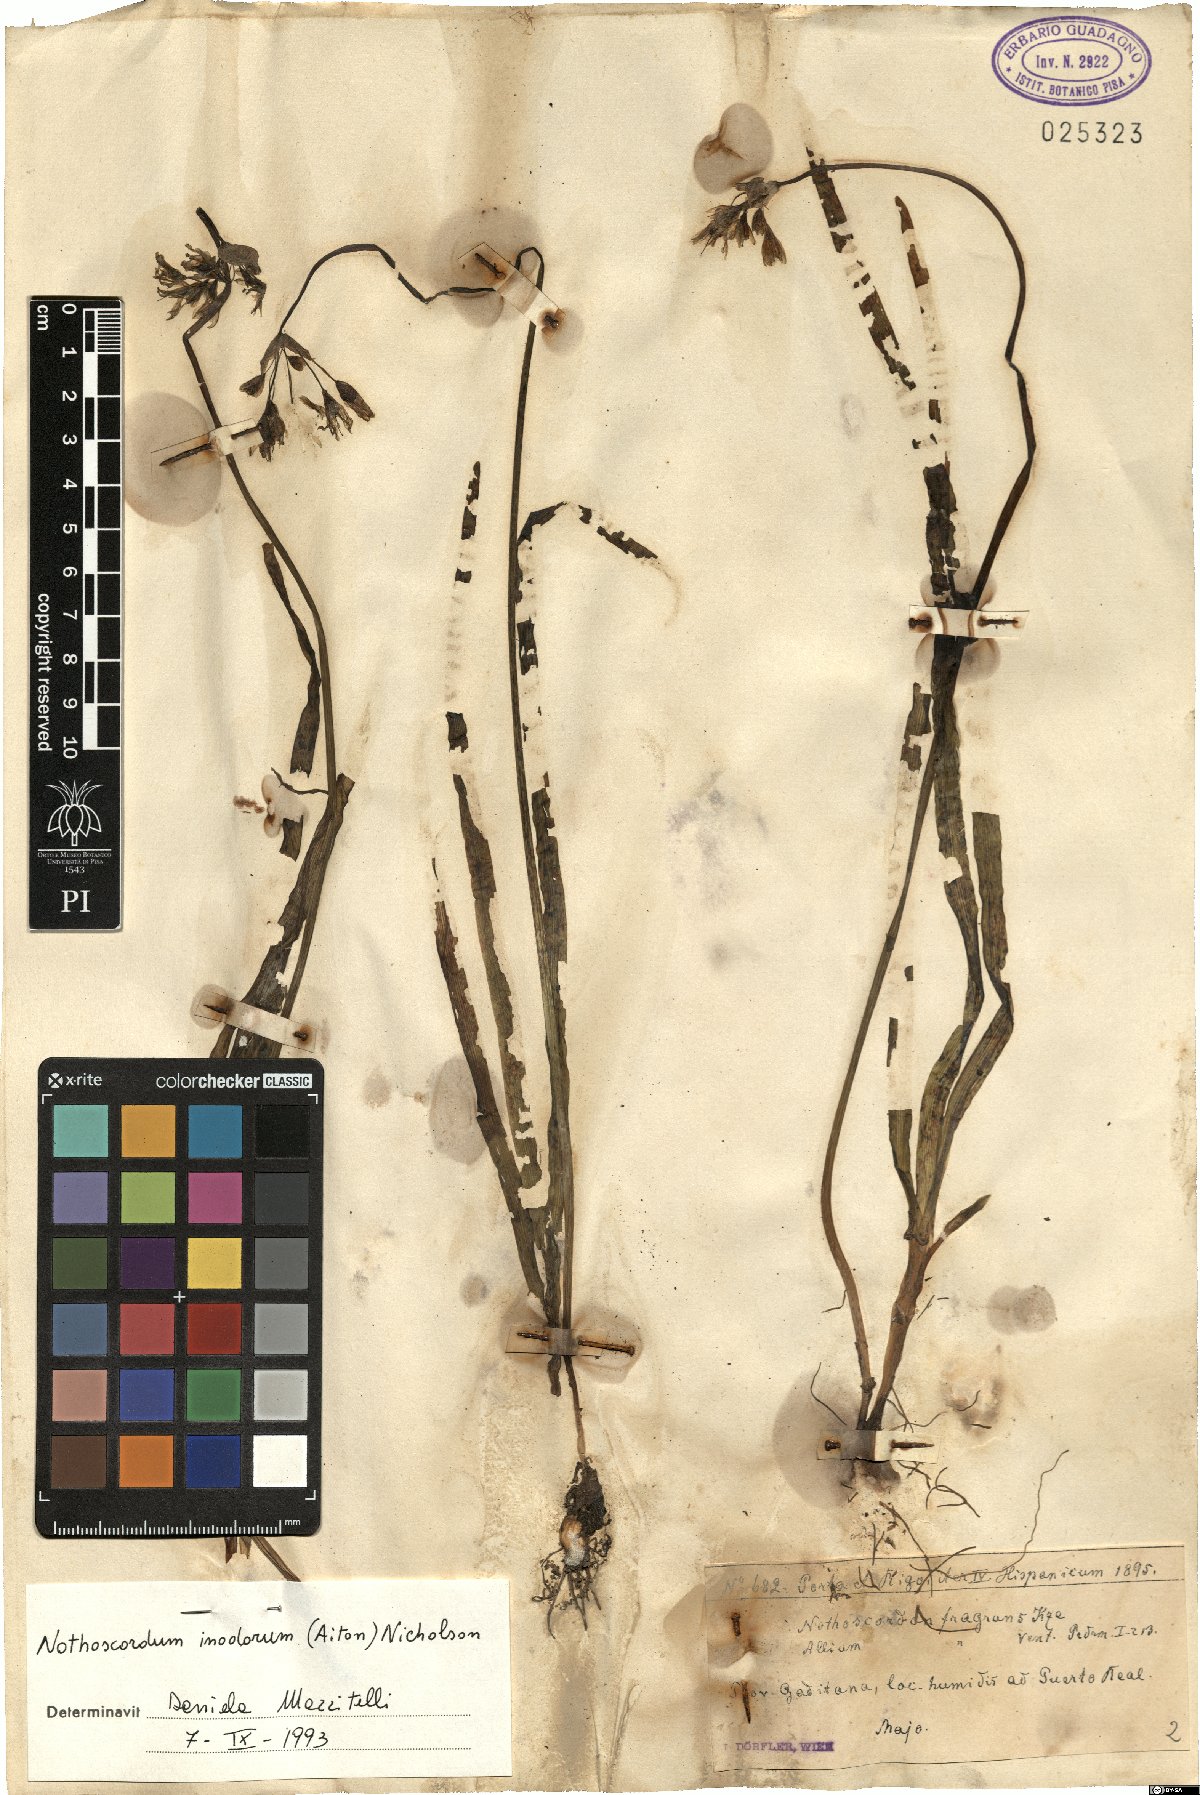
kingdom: Plantae
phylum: Tracheophyta
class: Liliopsida
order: Asparagales
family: Amaryllidaceae
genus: Allium
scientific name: Allium neapolitanum
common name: Neapolitan garlic
